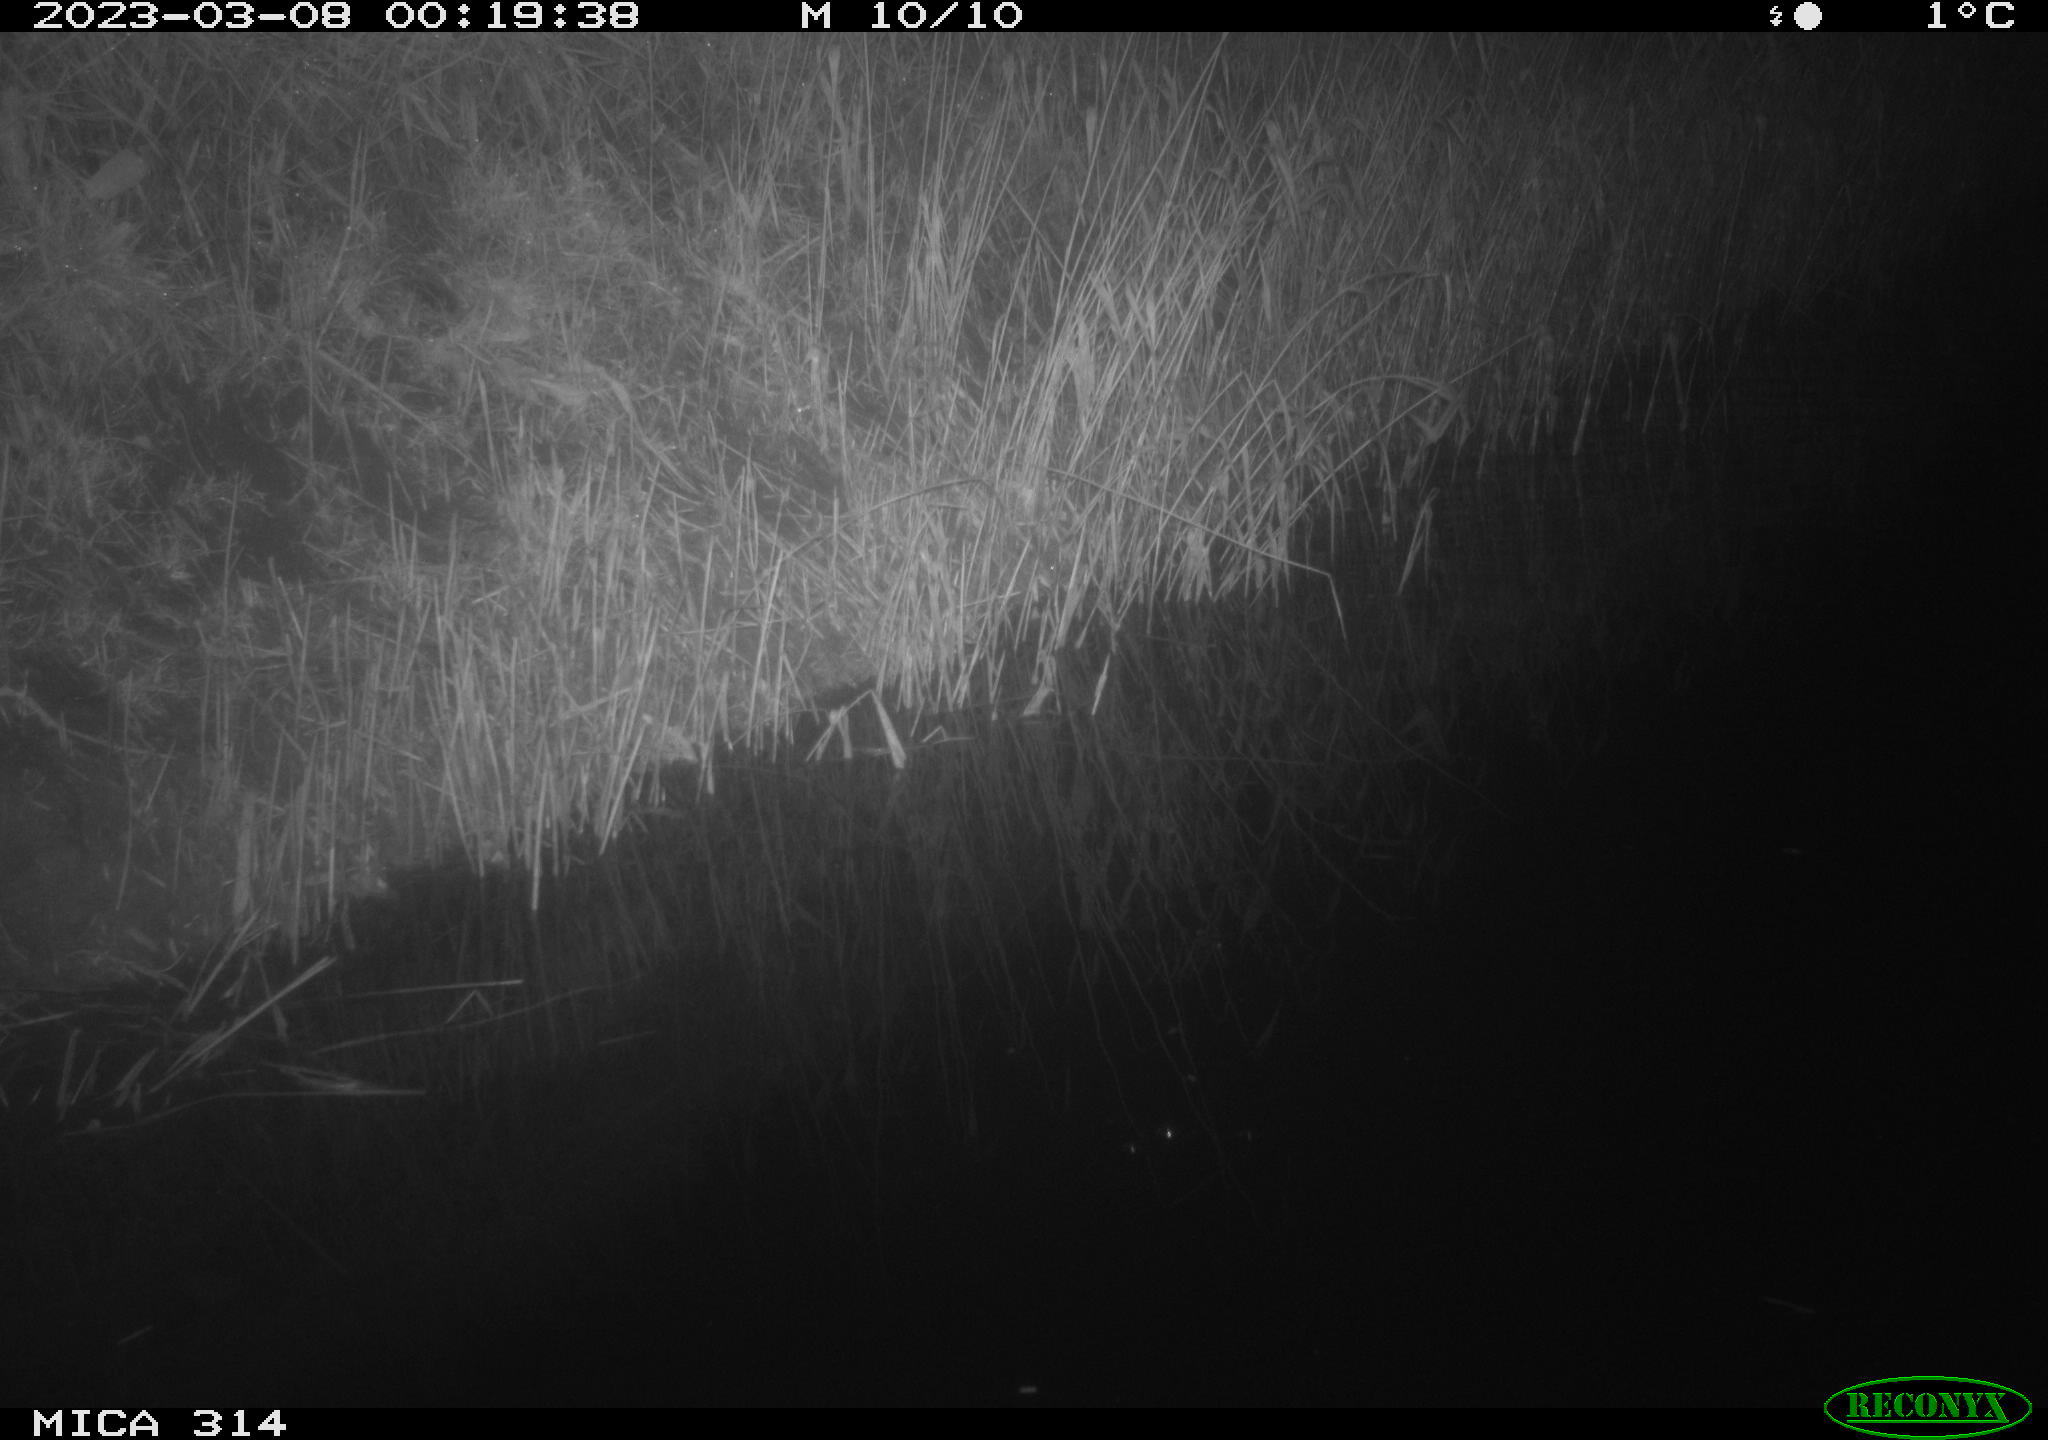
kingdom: Animalia
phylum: Chordata
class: Mammalia
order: Rodentia
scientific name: Rodentia
